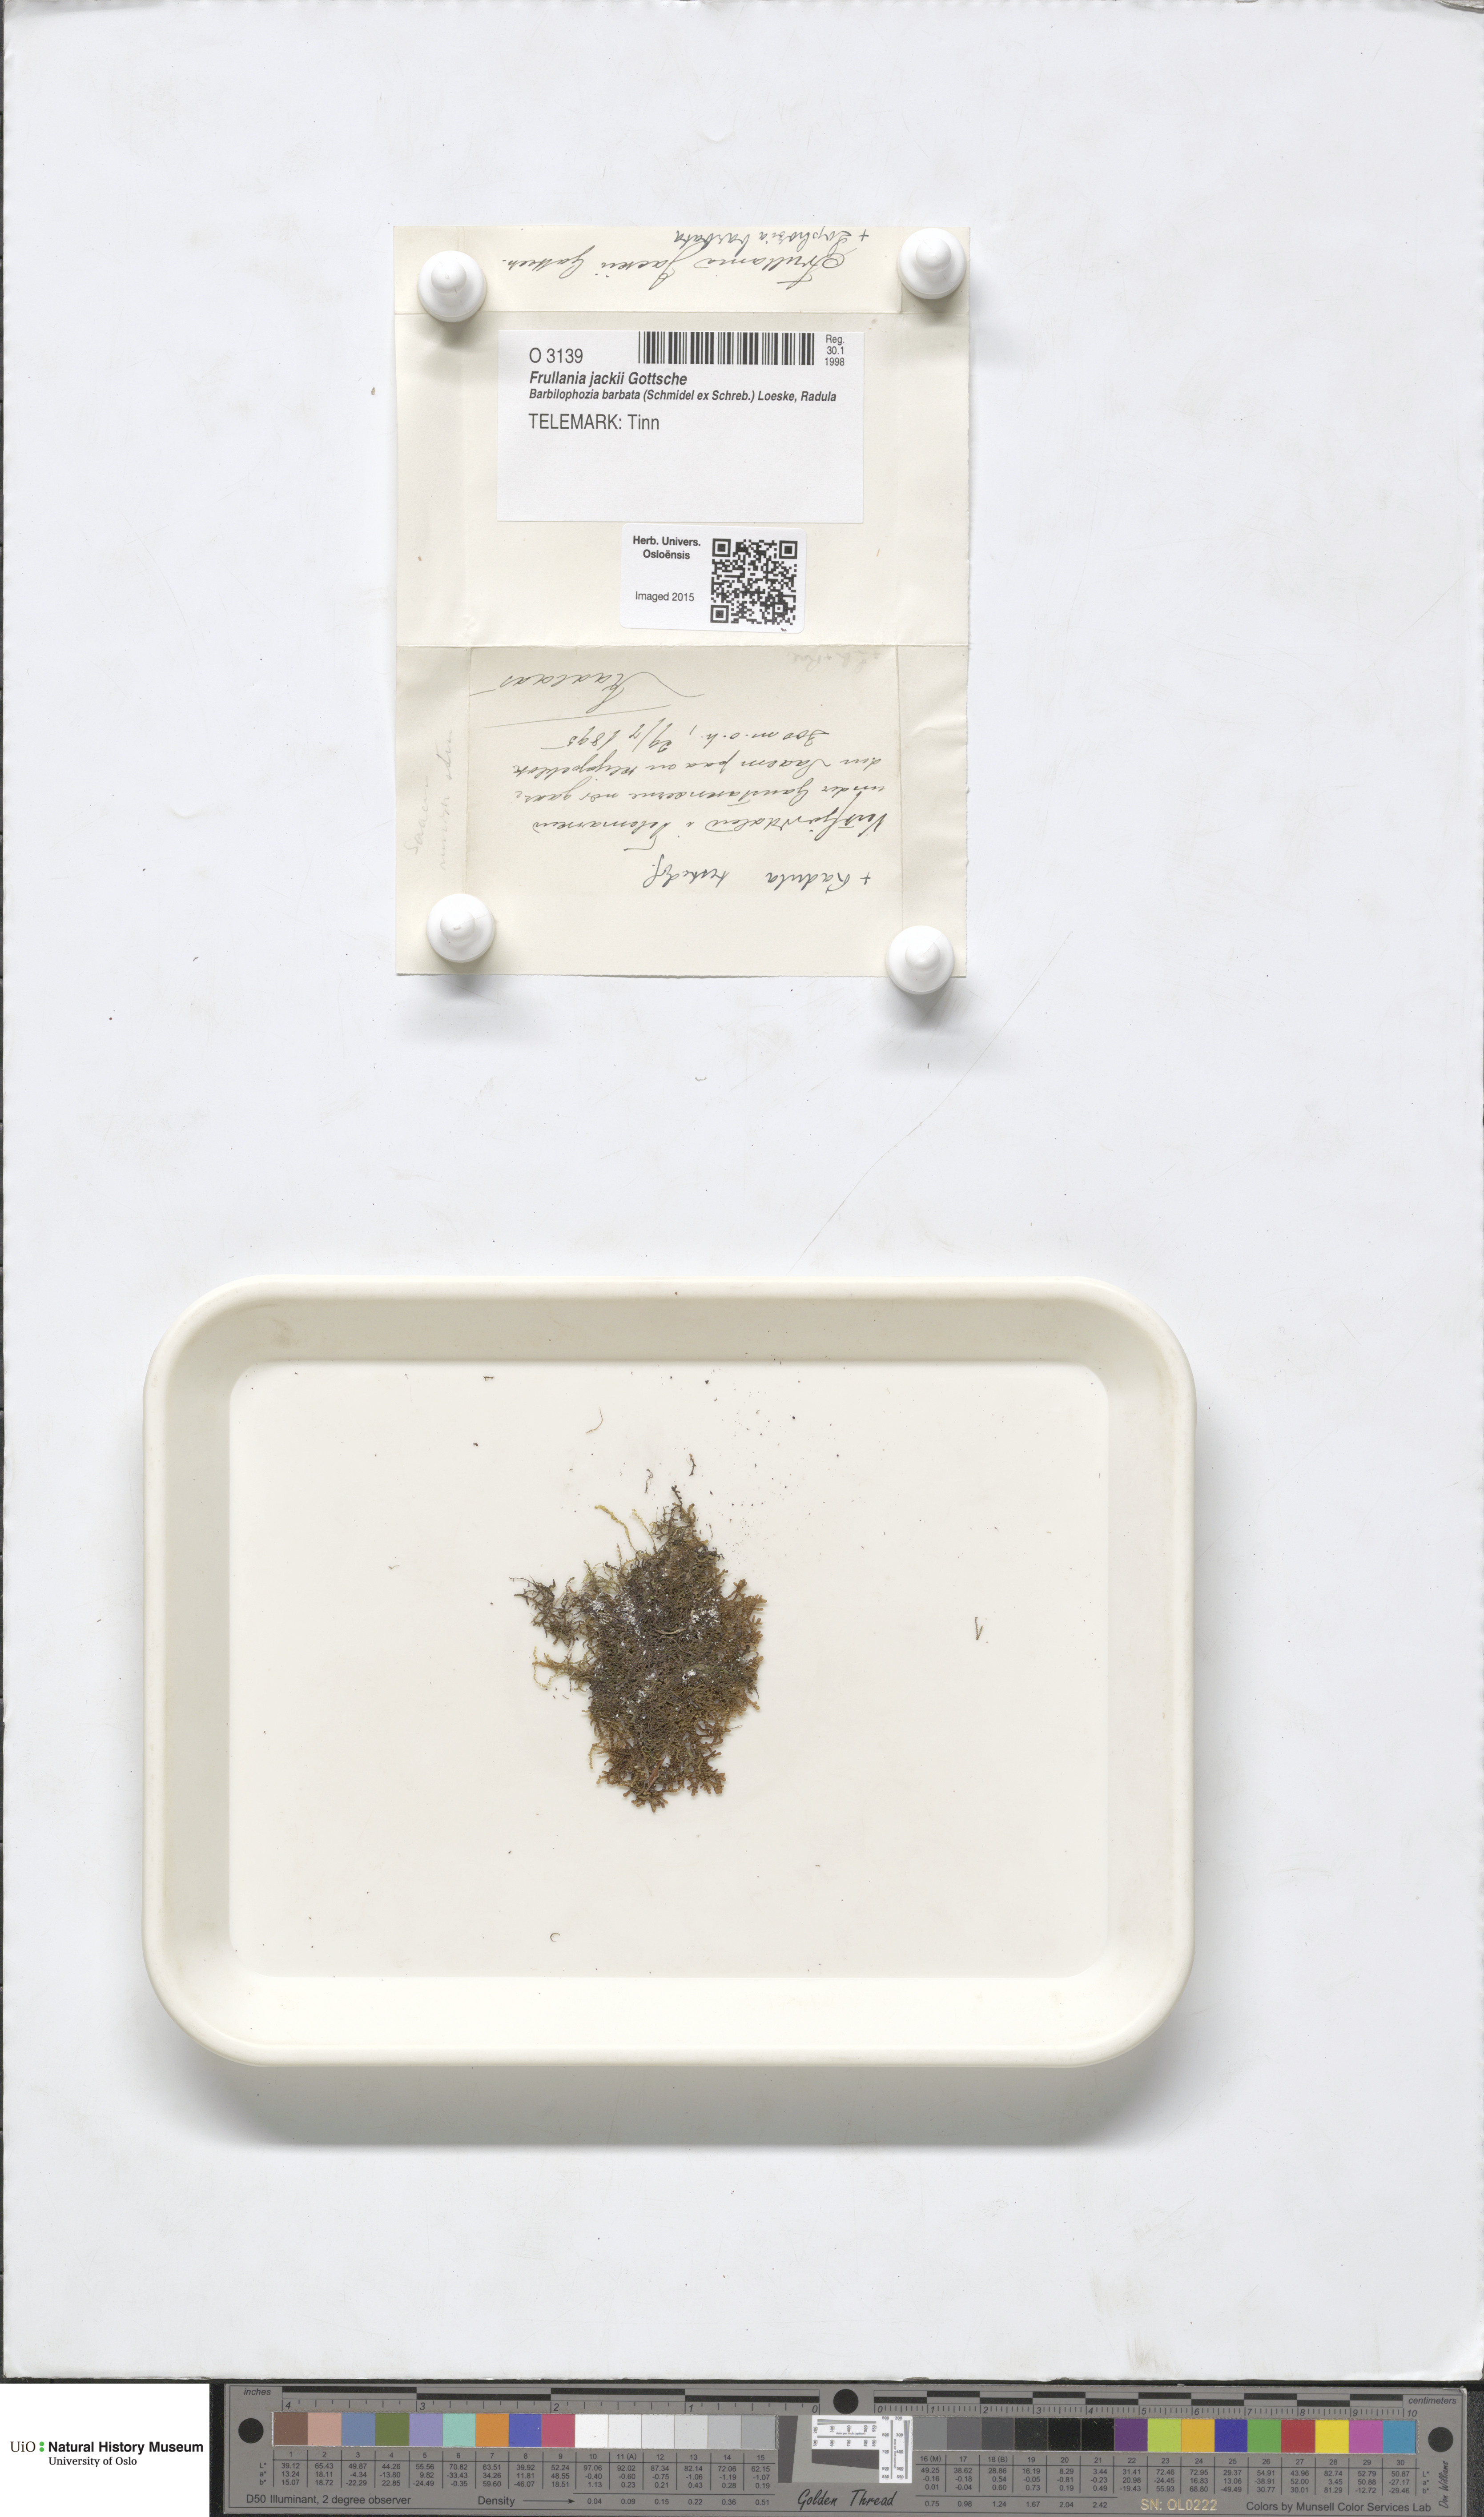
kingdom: Plantae
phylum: Marchantiophyta
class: Jungermanniopsida
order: Porellales
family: Frullaniaceae
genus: Frullania
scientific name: Frullania jackii
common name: Jack's scalewort
